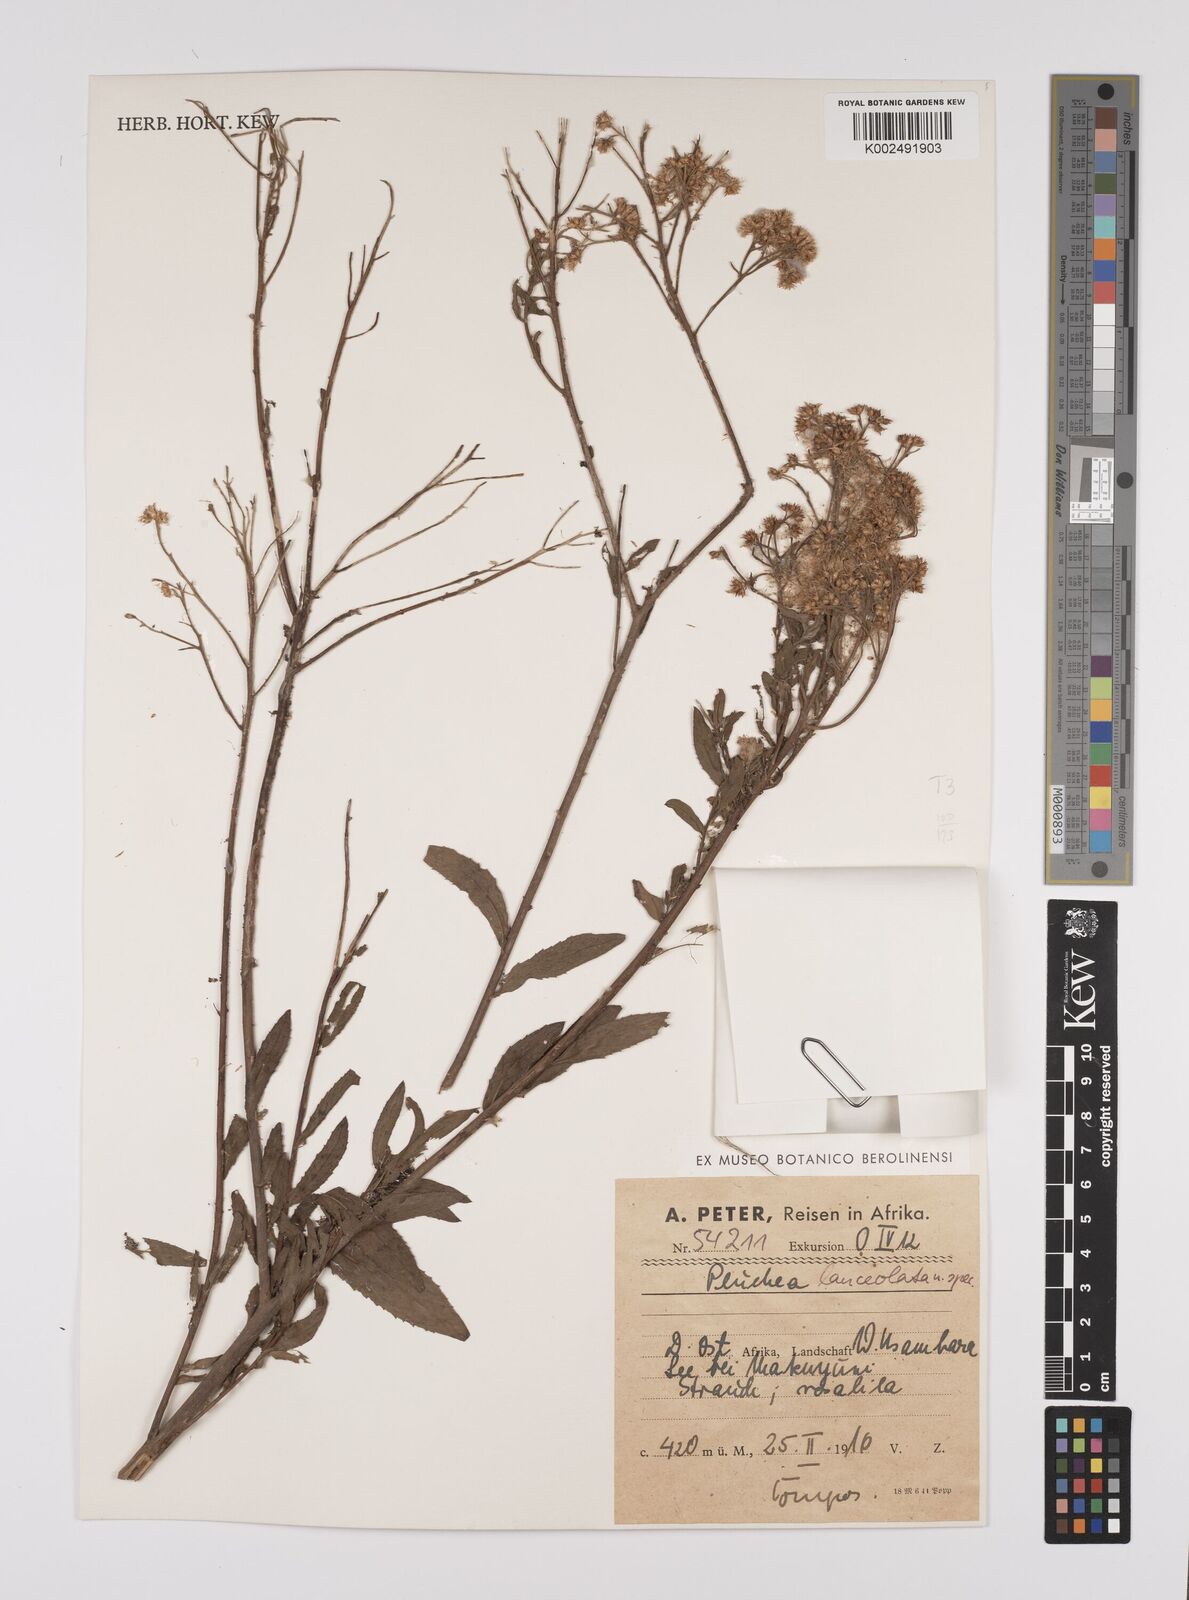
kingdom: Plantae
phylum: Tracheophyta
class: Magnoliopsida
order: Asterales
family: Asteraceae
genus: Pluchea
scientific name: Pluchea dioscoridis
